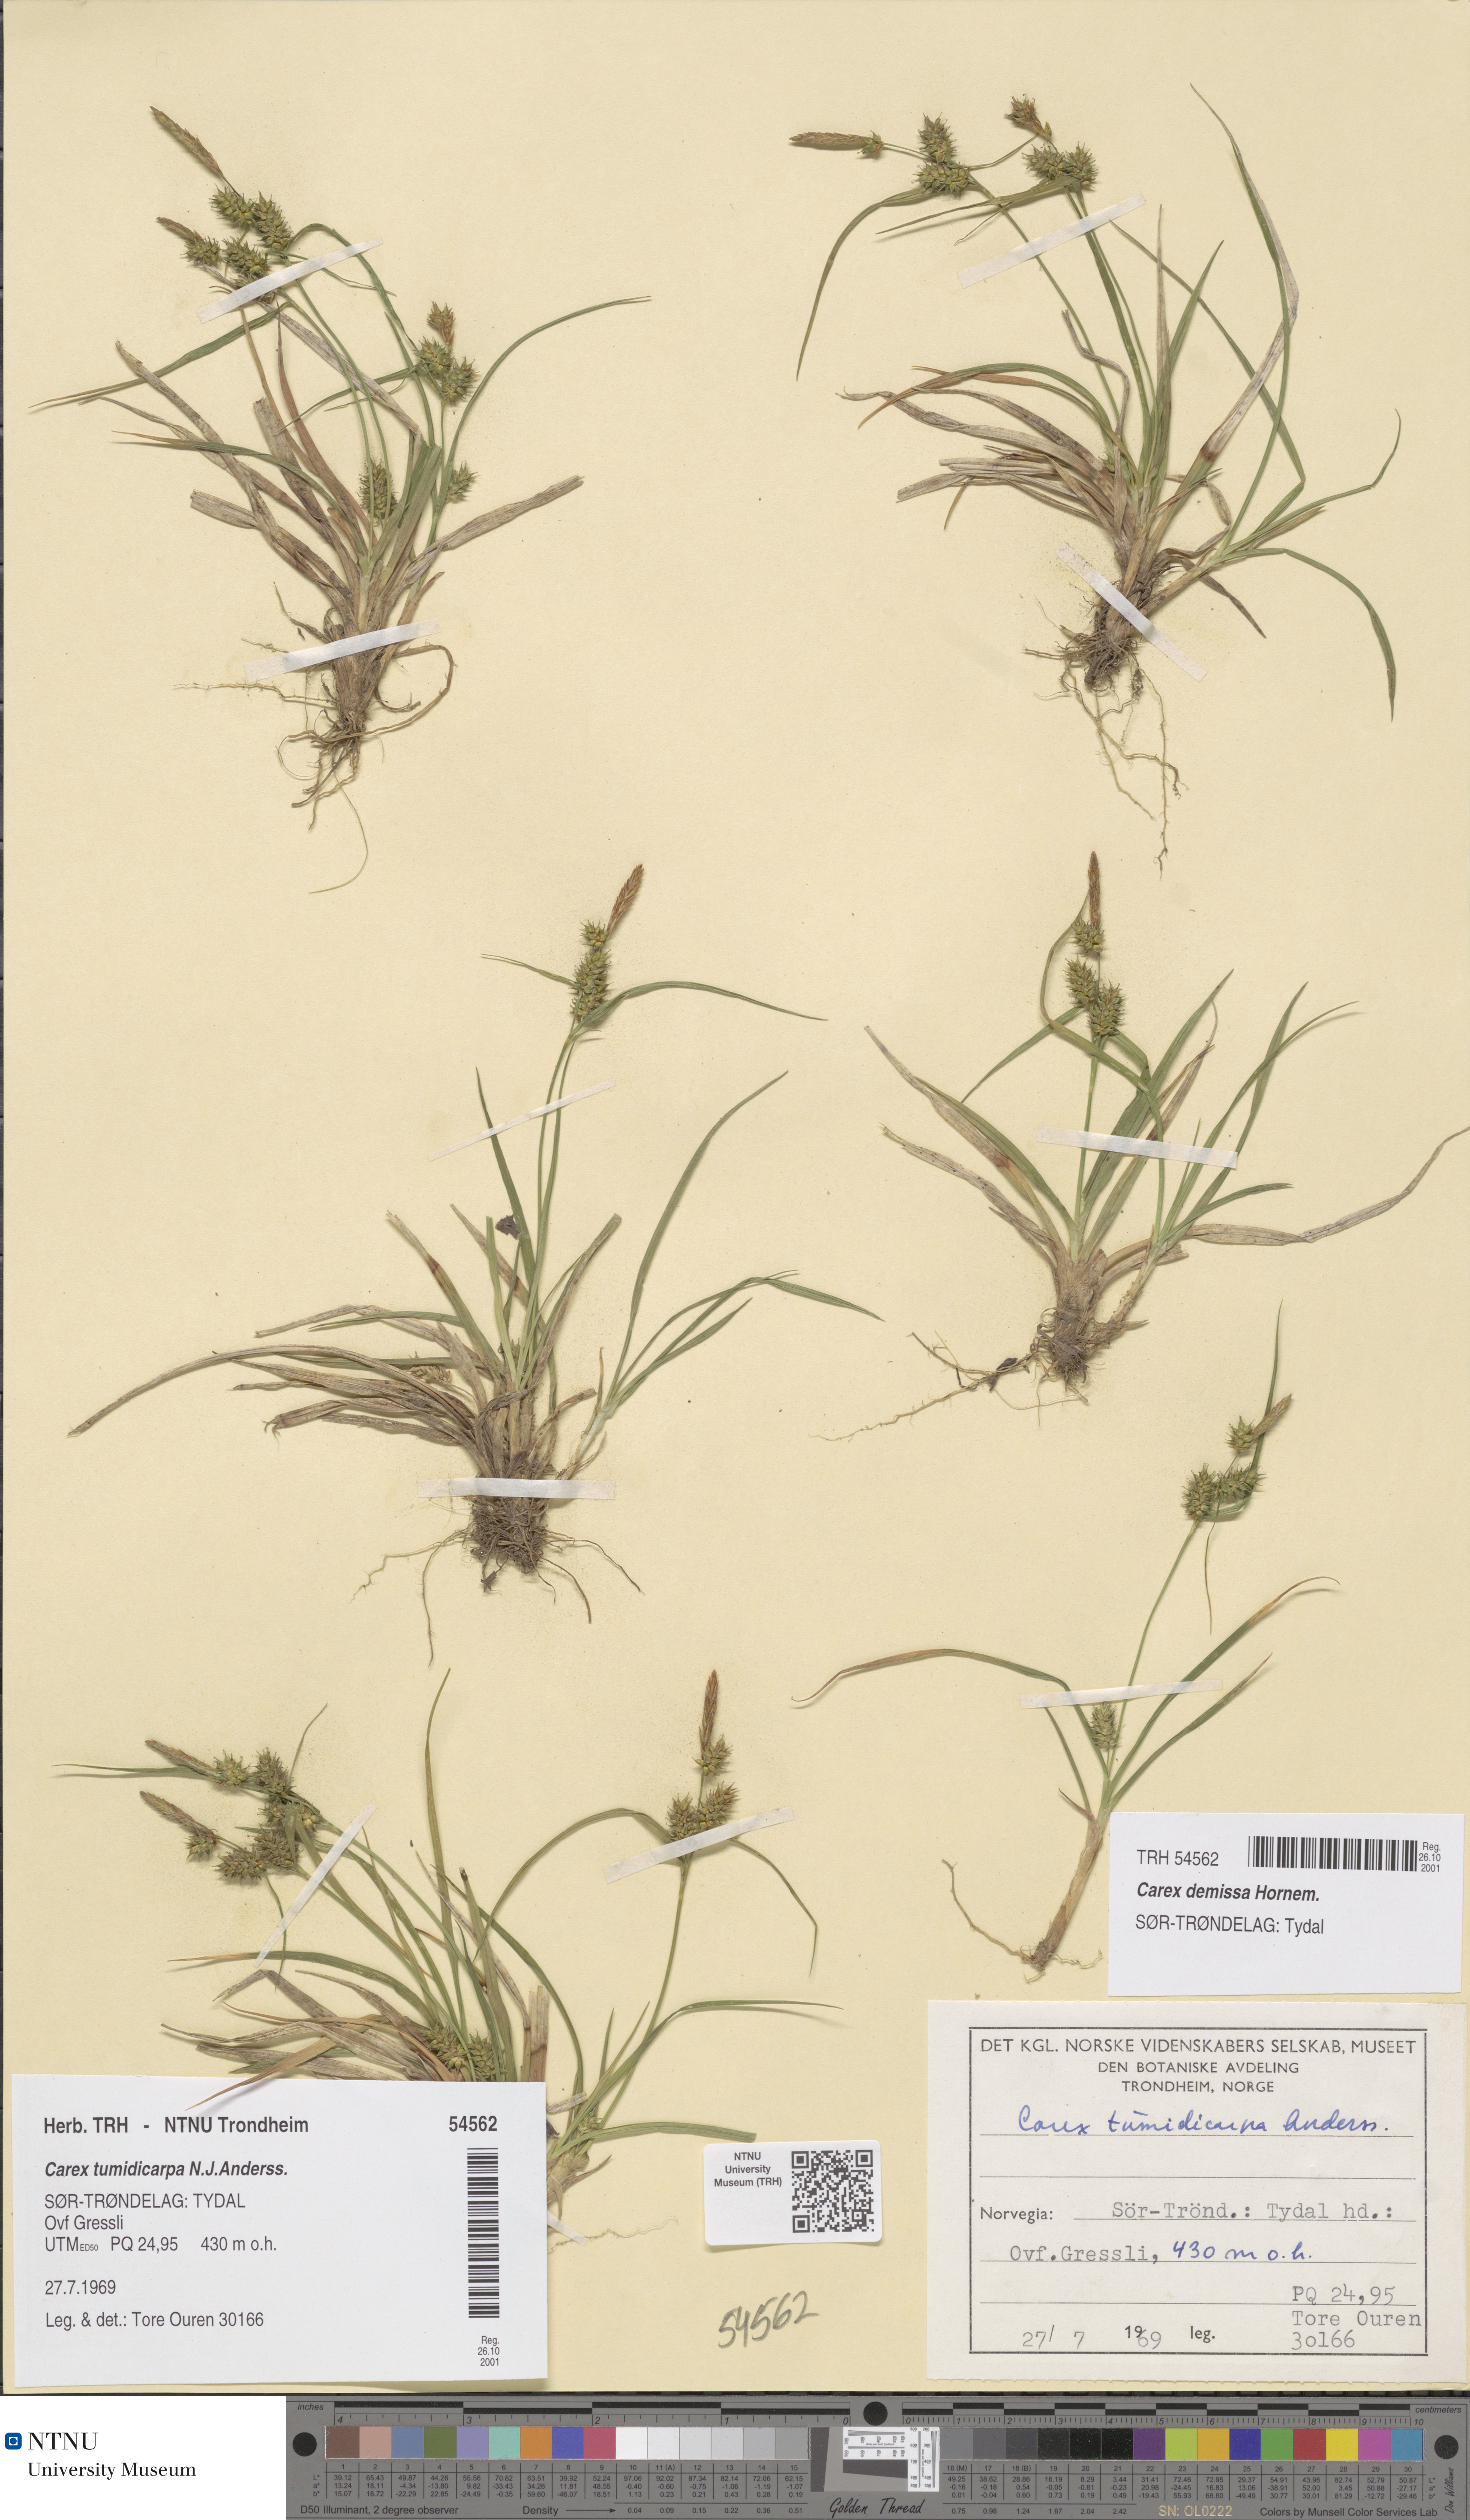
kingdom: Plantae
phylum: Tracheophyta
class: Liliopsida
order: Poales
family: Cyperaceae
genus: Carex
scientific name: Carex demissa
